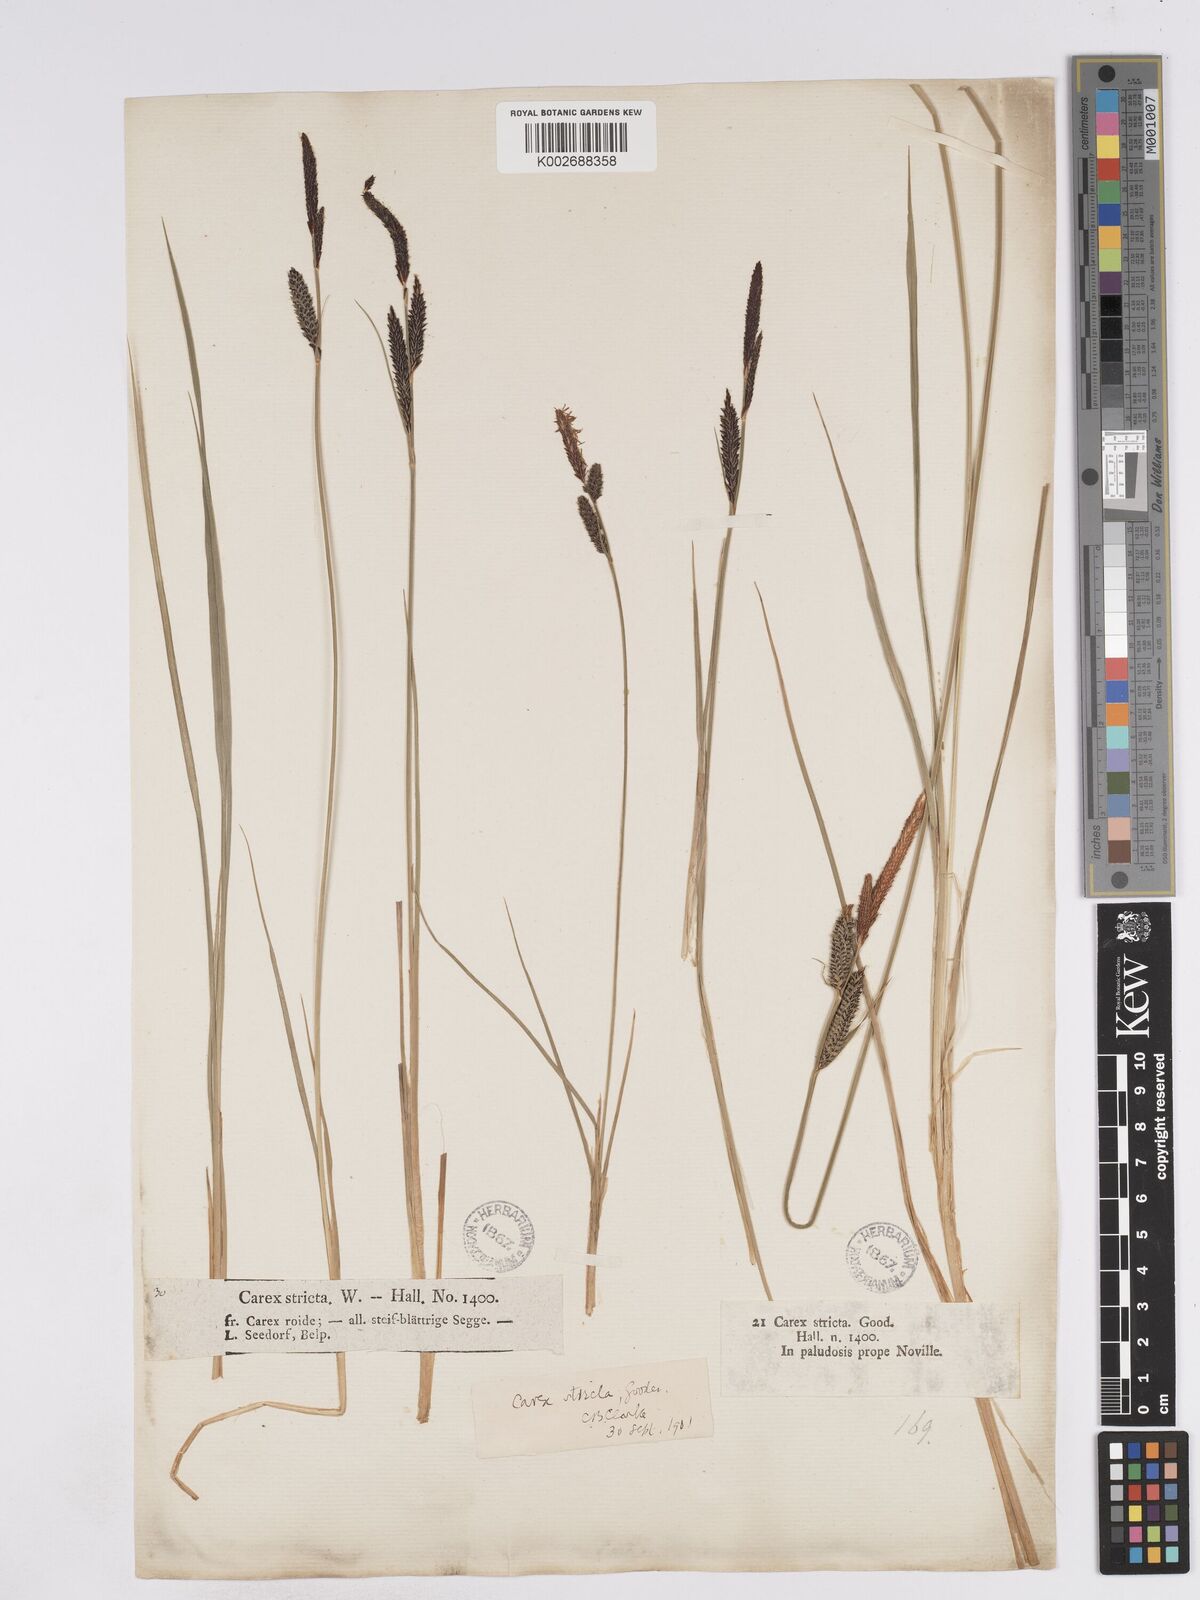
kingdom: Plantae
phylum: Tracheophyta
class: Liliopsida
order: Poales
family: Cyperaceae
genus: Carex
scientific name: Carex elata
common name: Tufted sedge
